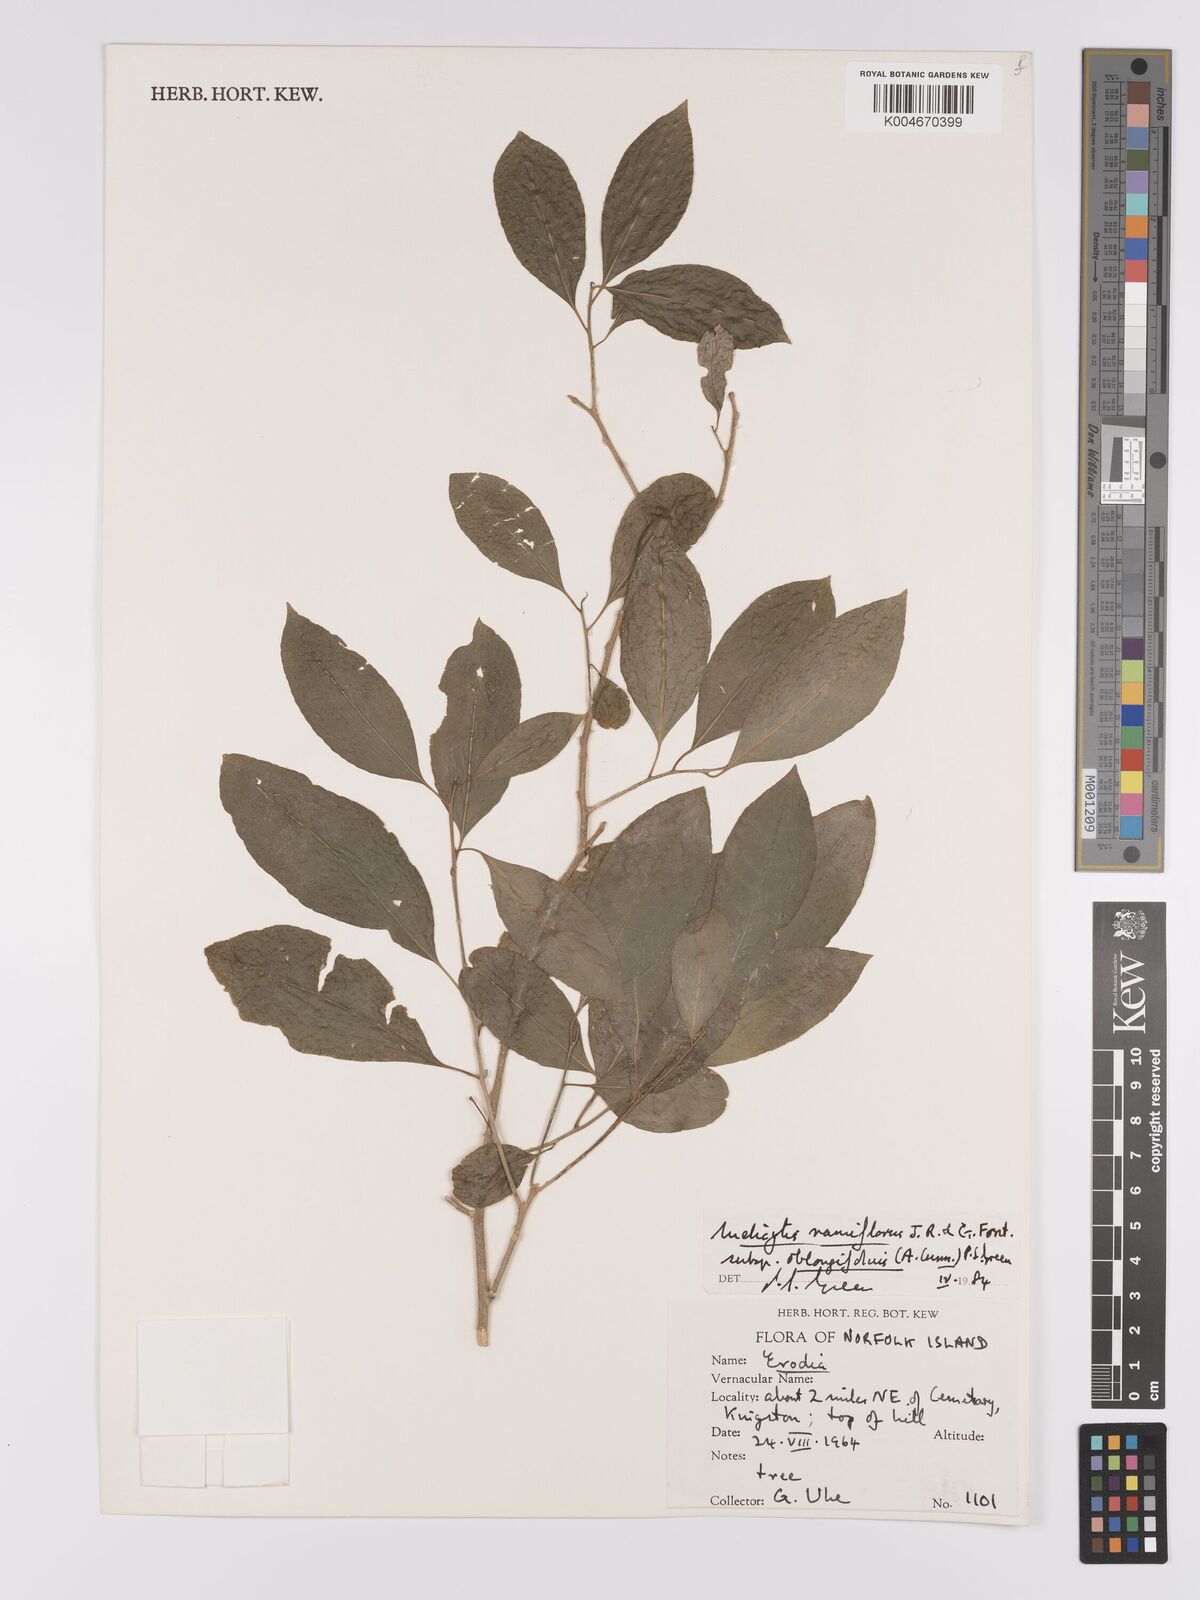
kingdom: Plantae
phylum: Tracheophyta
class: Magnoliopsida
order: Malpighiales
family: Violaceae
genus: Melicytus
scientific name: Melicytus ramiflorus
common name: Mahoe
